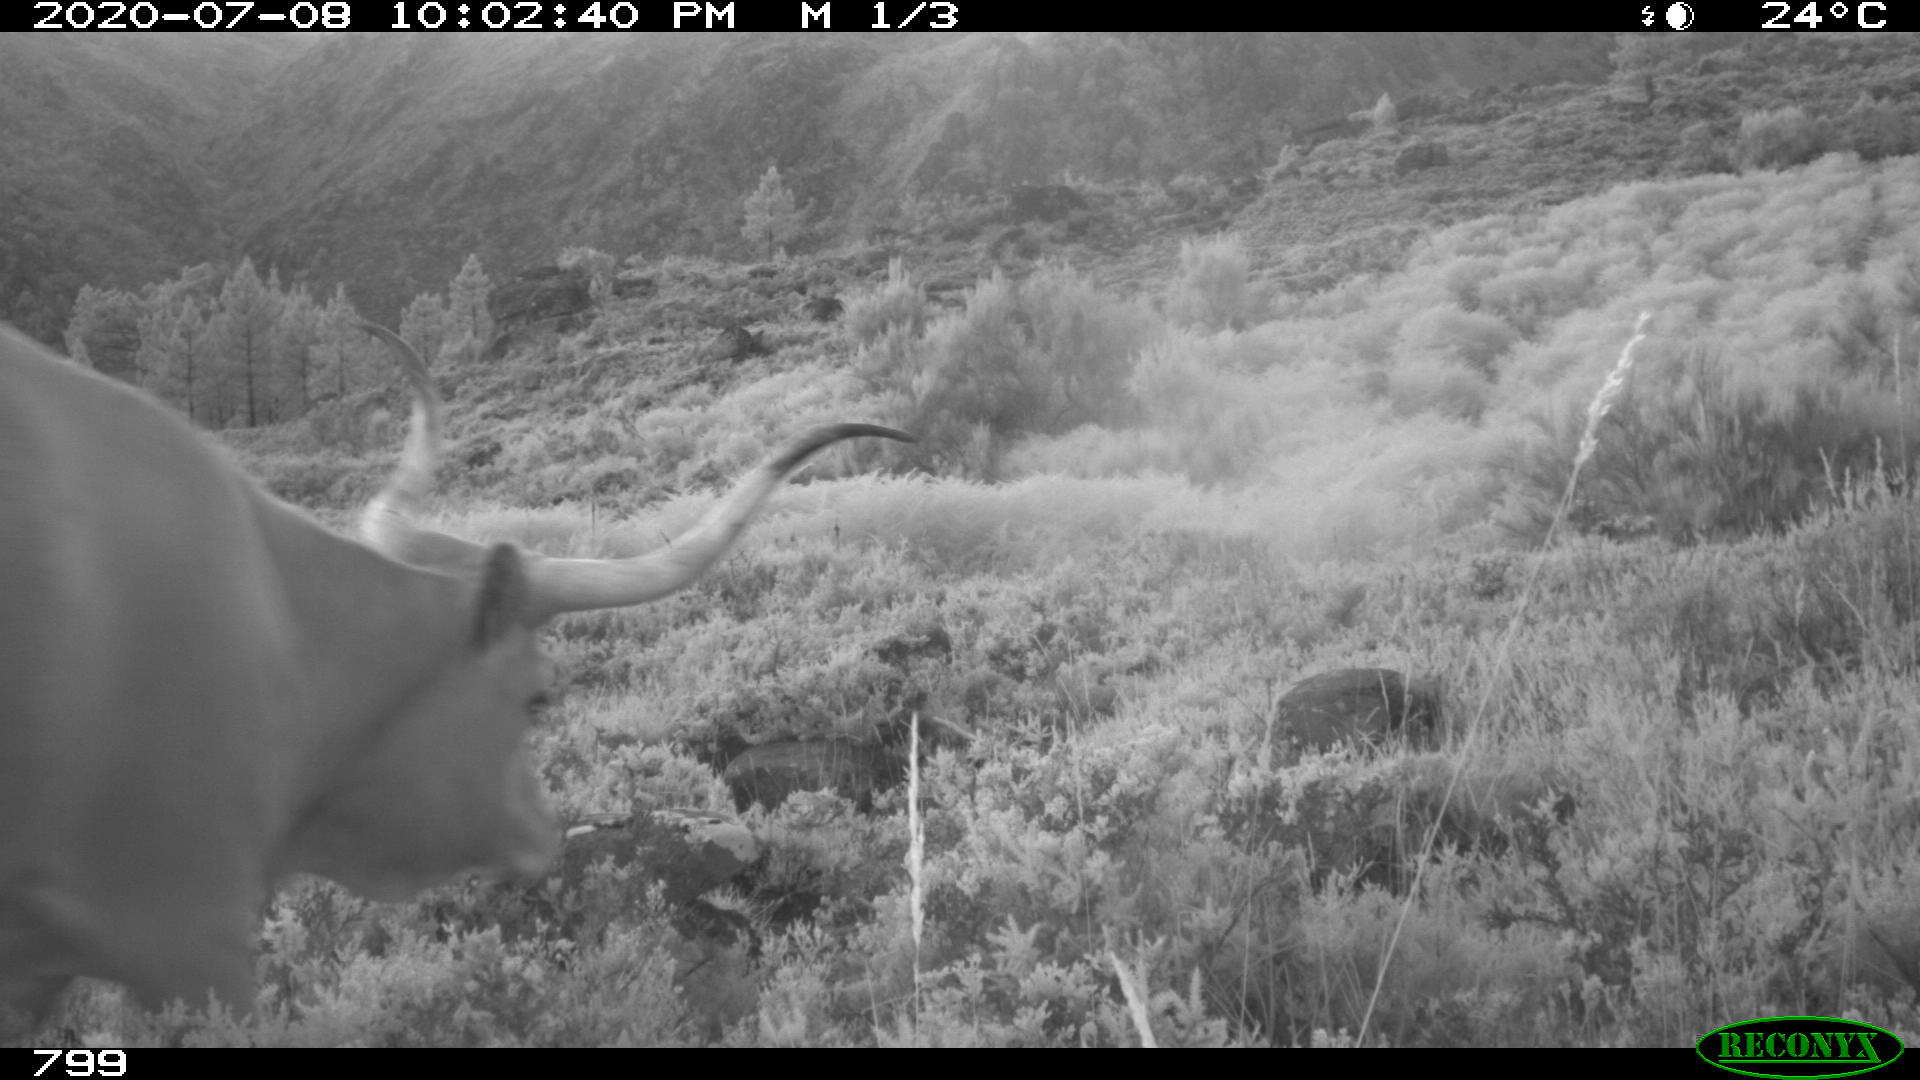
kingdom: Animalia
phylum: Chordata
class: Mammalia
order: Artiodactyla
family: Bovidae
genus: Bos
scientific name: Bos taurus
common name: Domesticated cattle
